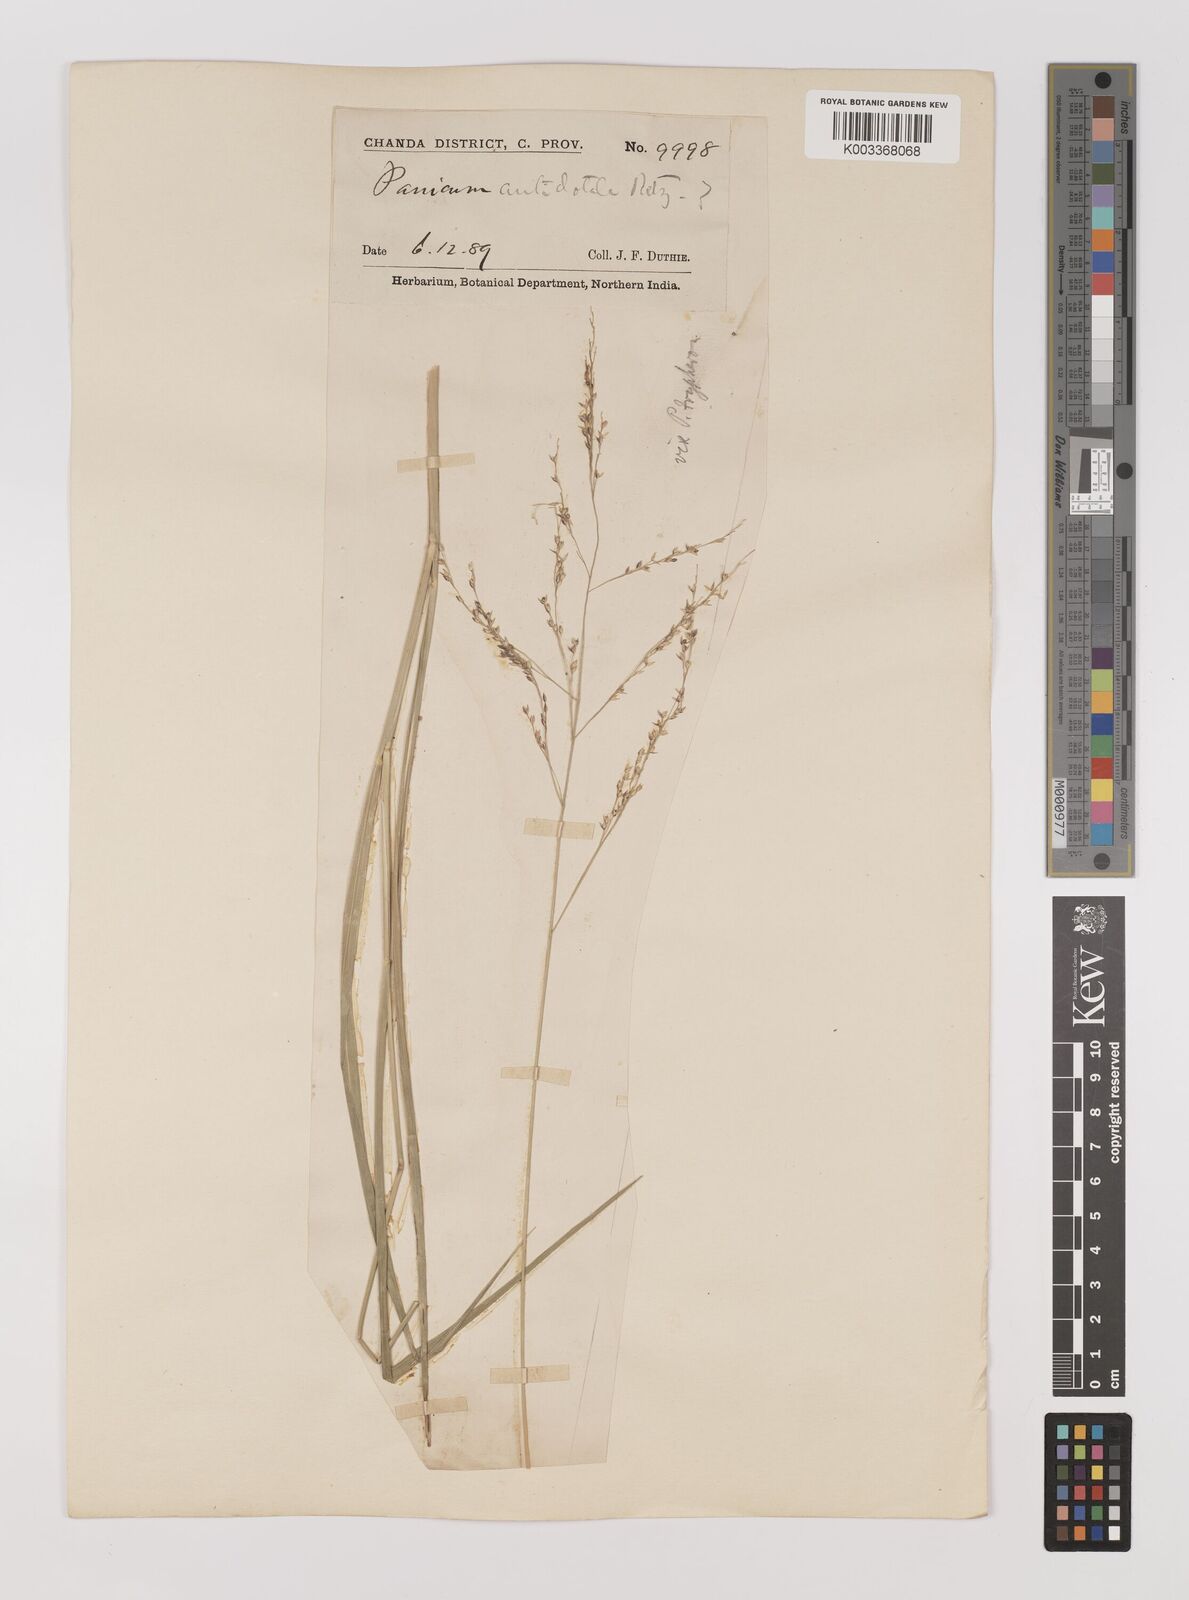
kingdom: Plantae
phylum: Tracheophyta
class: Liliopsida
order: Poales
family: Poaceae
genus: Panicum
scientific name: Panicum antidotale
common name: Blue panicum
